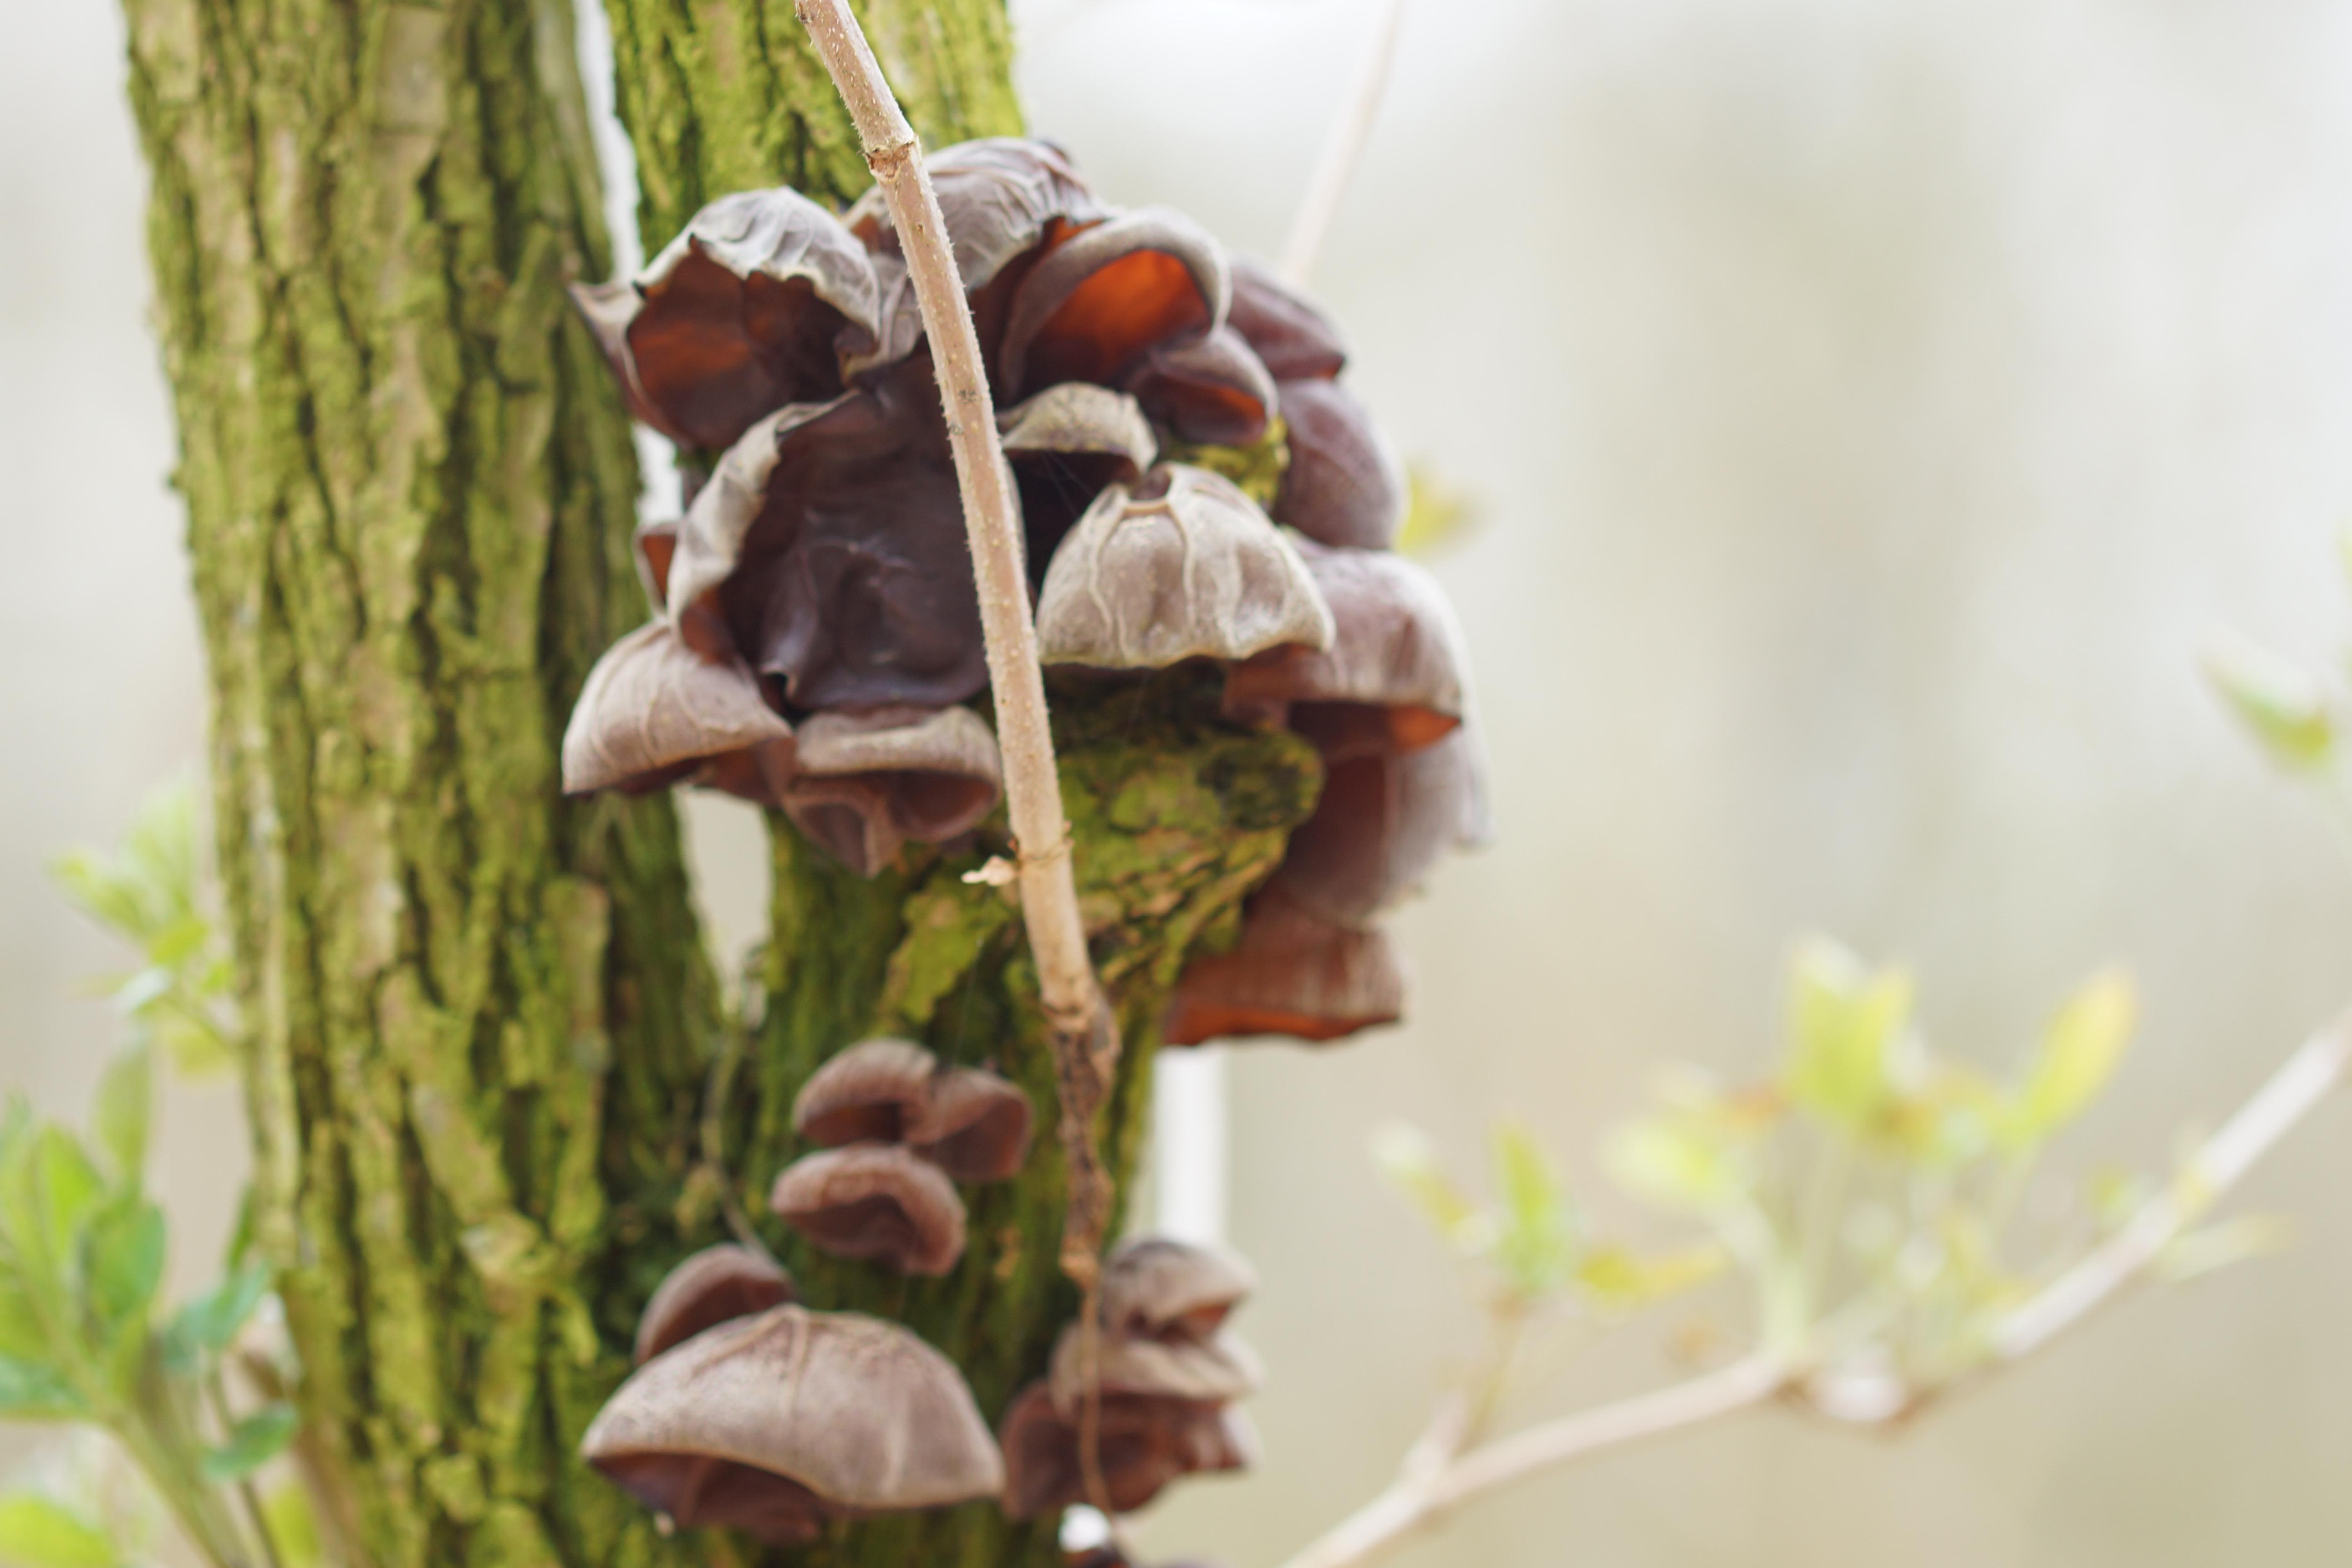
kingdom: Fungi
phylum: Basidiomycota
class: Agaricomycetes
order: Auriculariales
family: Auriculariaceae
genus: Auricularia
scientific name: Auricularia auricula-judae
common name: almindelig judasøre
